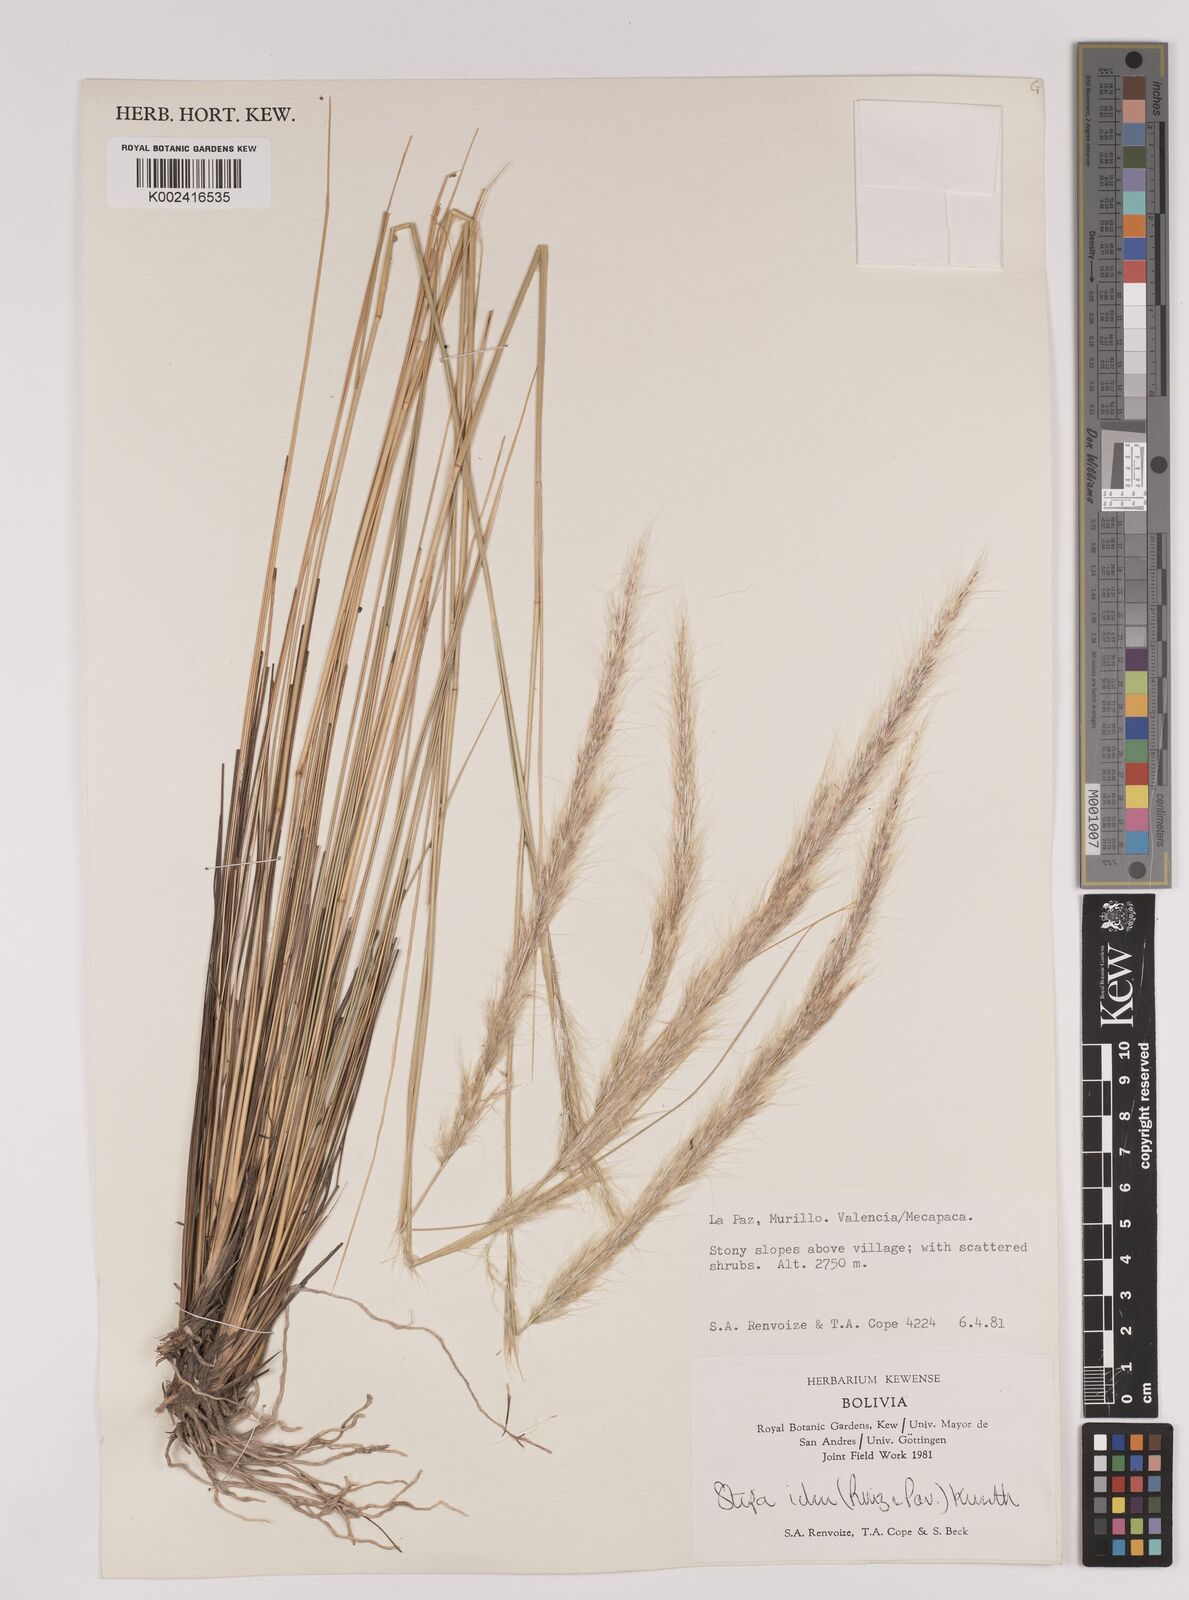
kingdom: Plantae
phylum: Tracheophyta
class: Liliopsida
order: Poales
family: Poaceae
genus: Stipa
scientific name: Stipa
